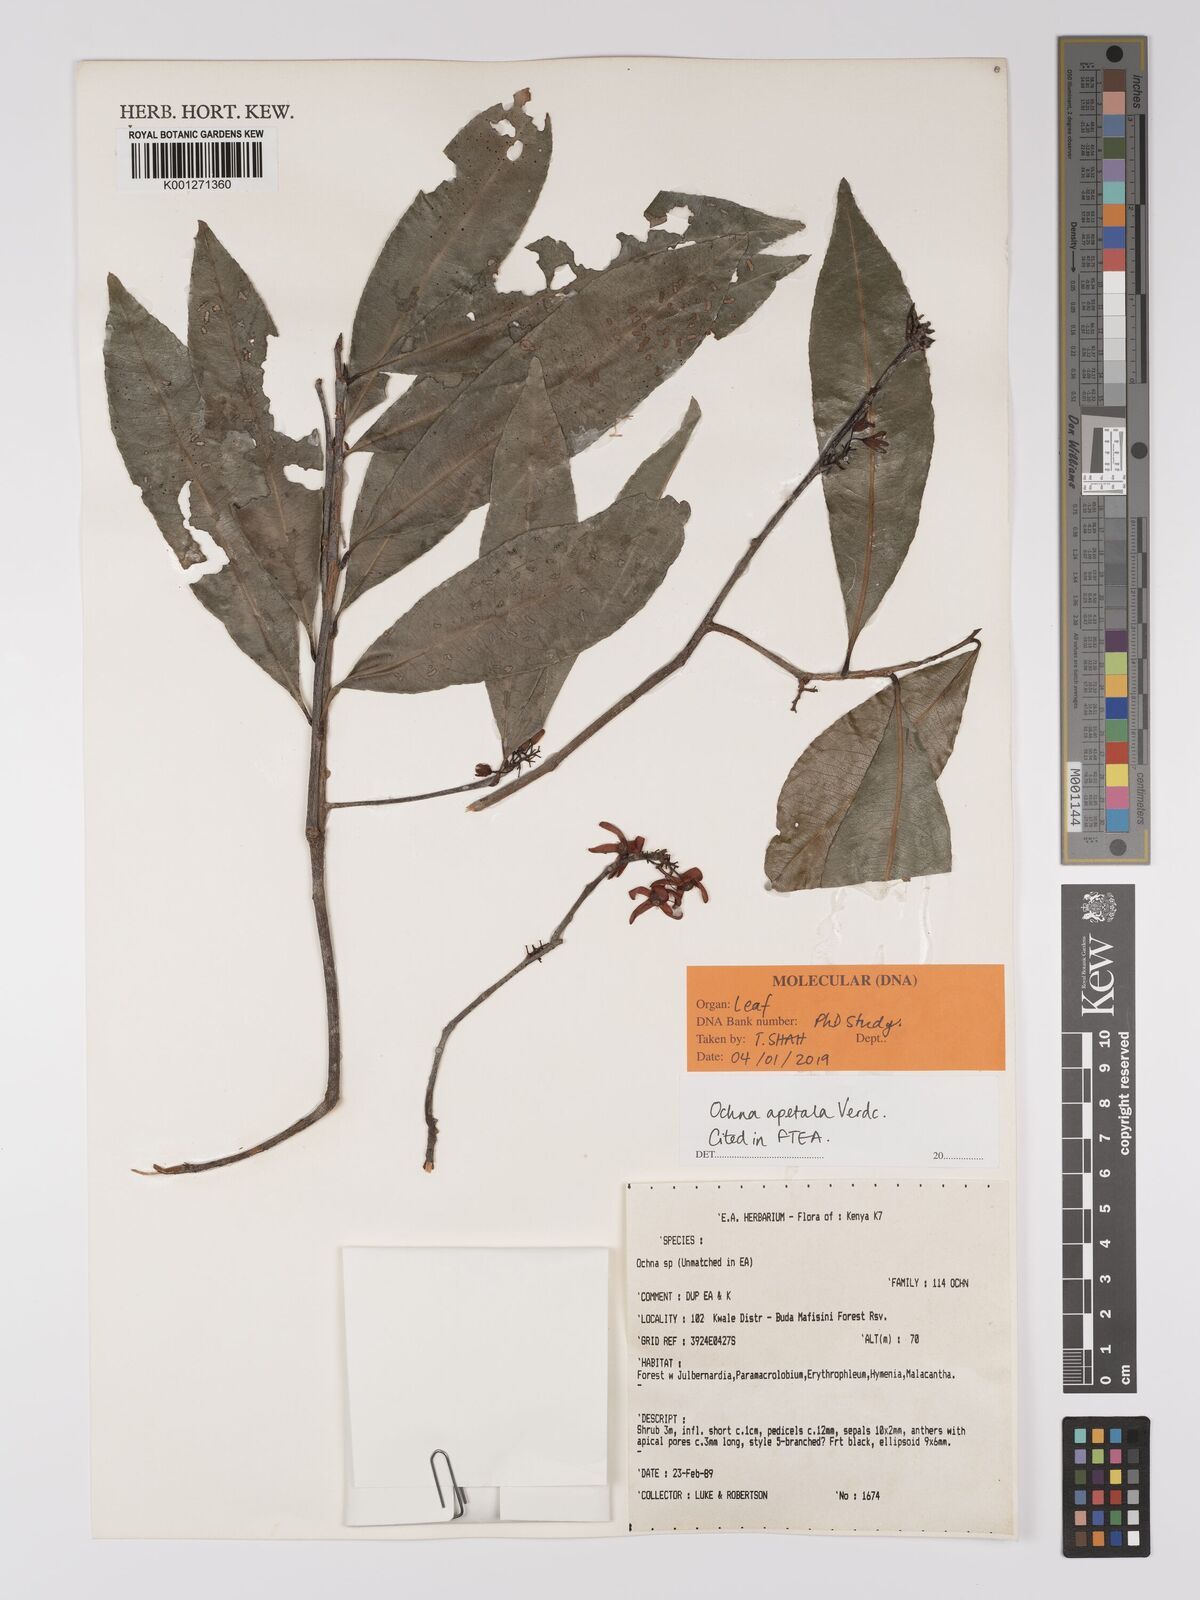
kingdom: Plantae
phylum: Tracheophyta
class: Magnoliopsida
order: Malpighiales
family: Ochnaceae
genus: Ochna
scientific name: Ochna apetala
